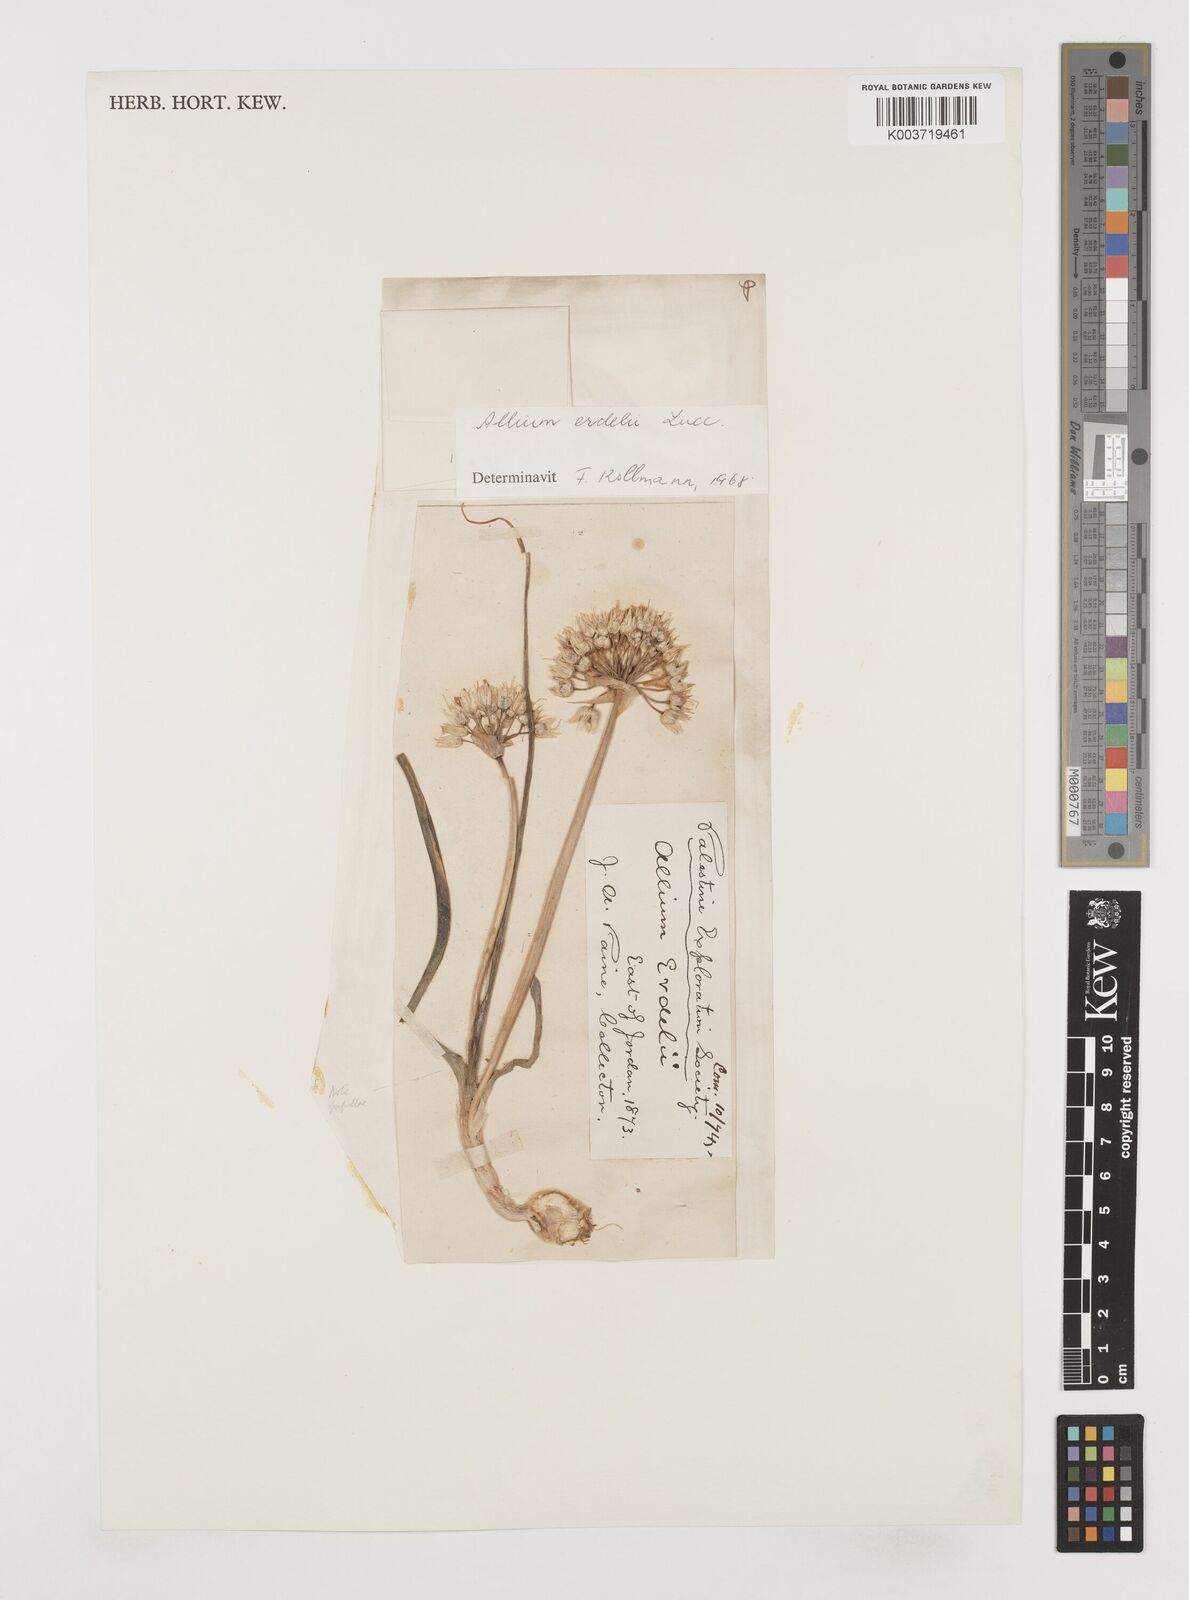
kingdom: Plantae
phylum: Tracheophyta
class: Liliopsida
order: Asparagales
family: Amaryllidaceae
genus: Allium
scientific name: Allium erdelii
